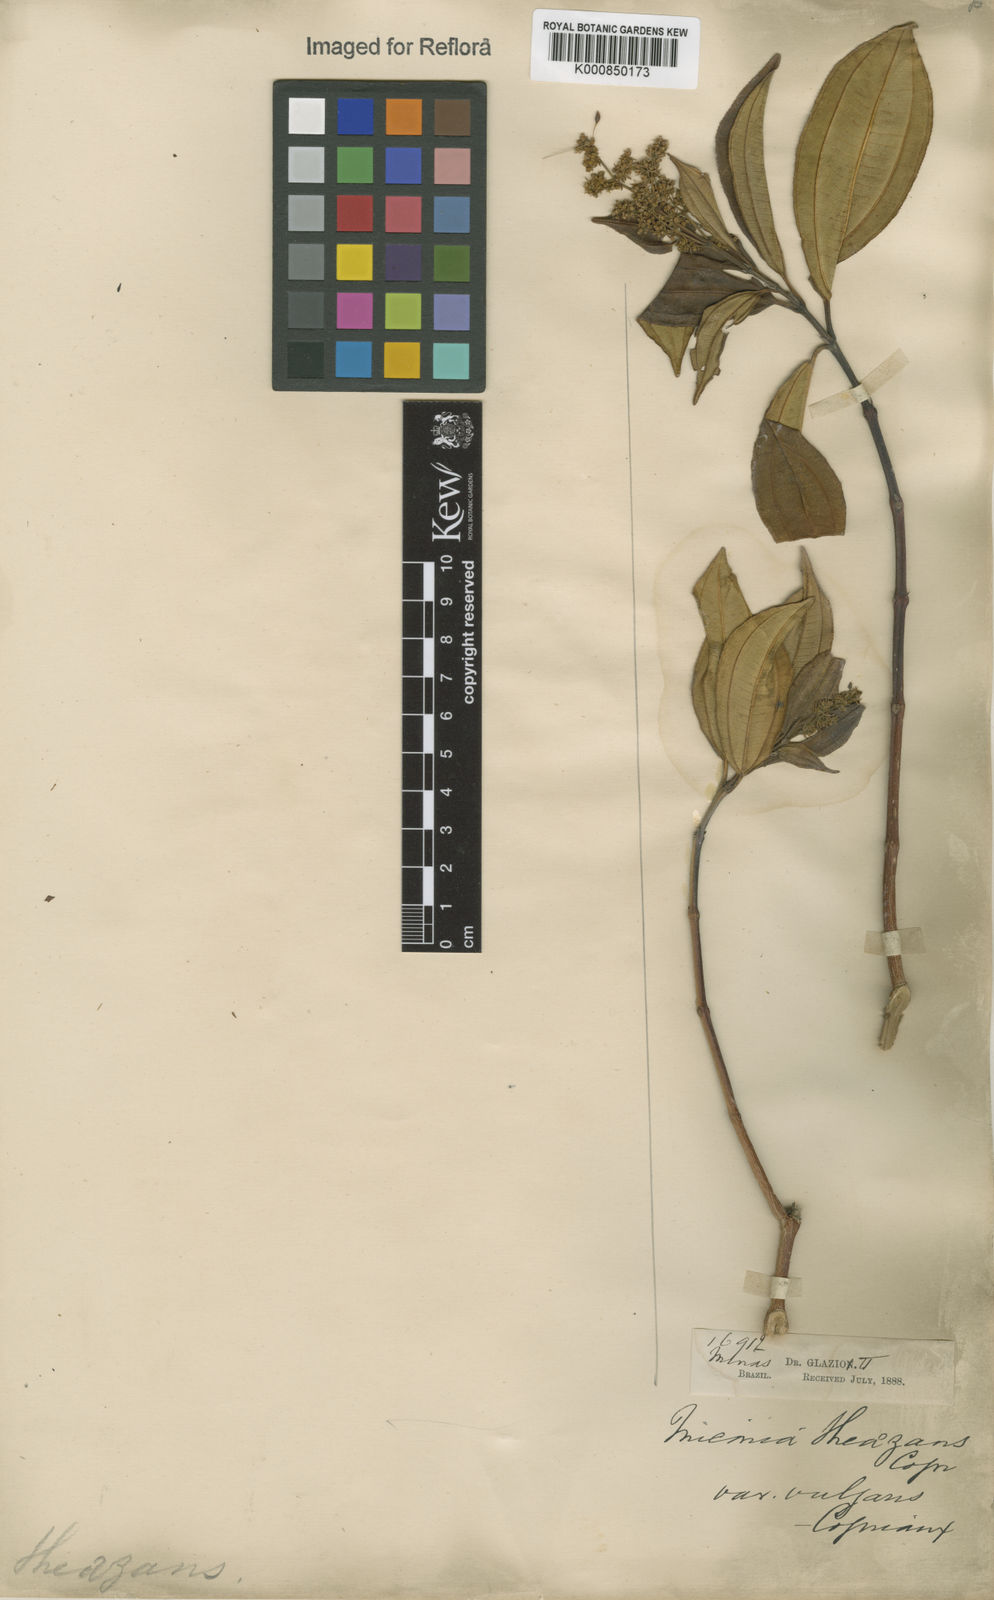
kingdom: Plantae
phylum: Tracheophyta
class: Magnoliopsida
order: Myrtales
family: Melastomataceae
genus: Miconia
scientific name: Miconia
